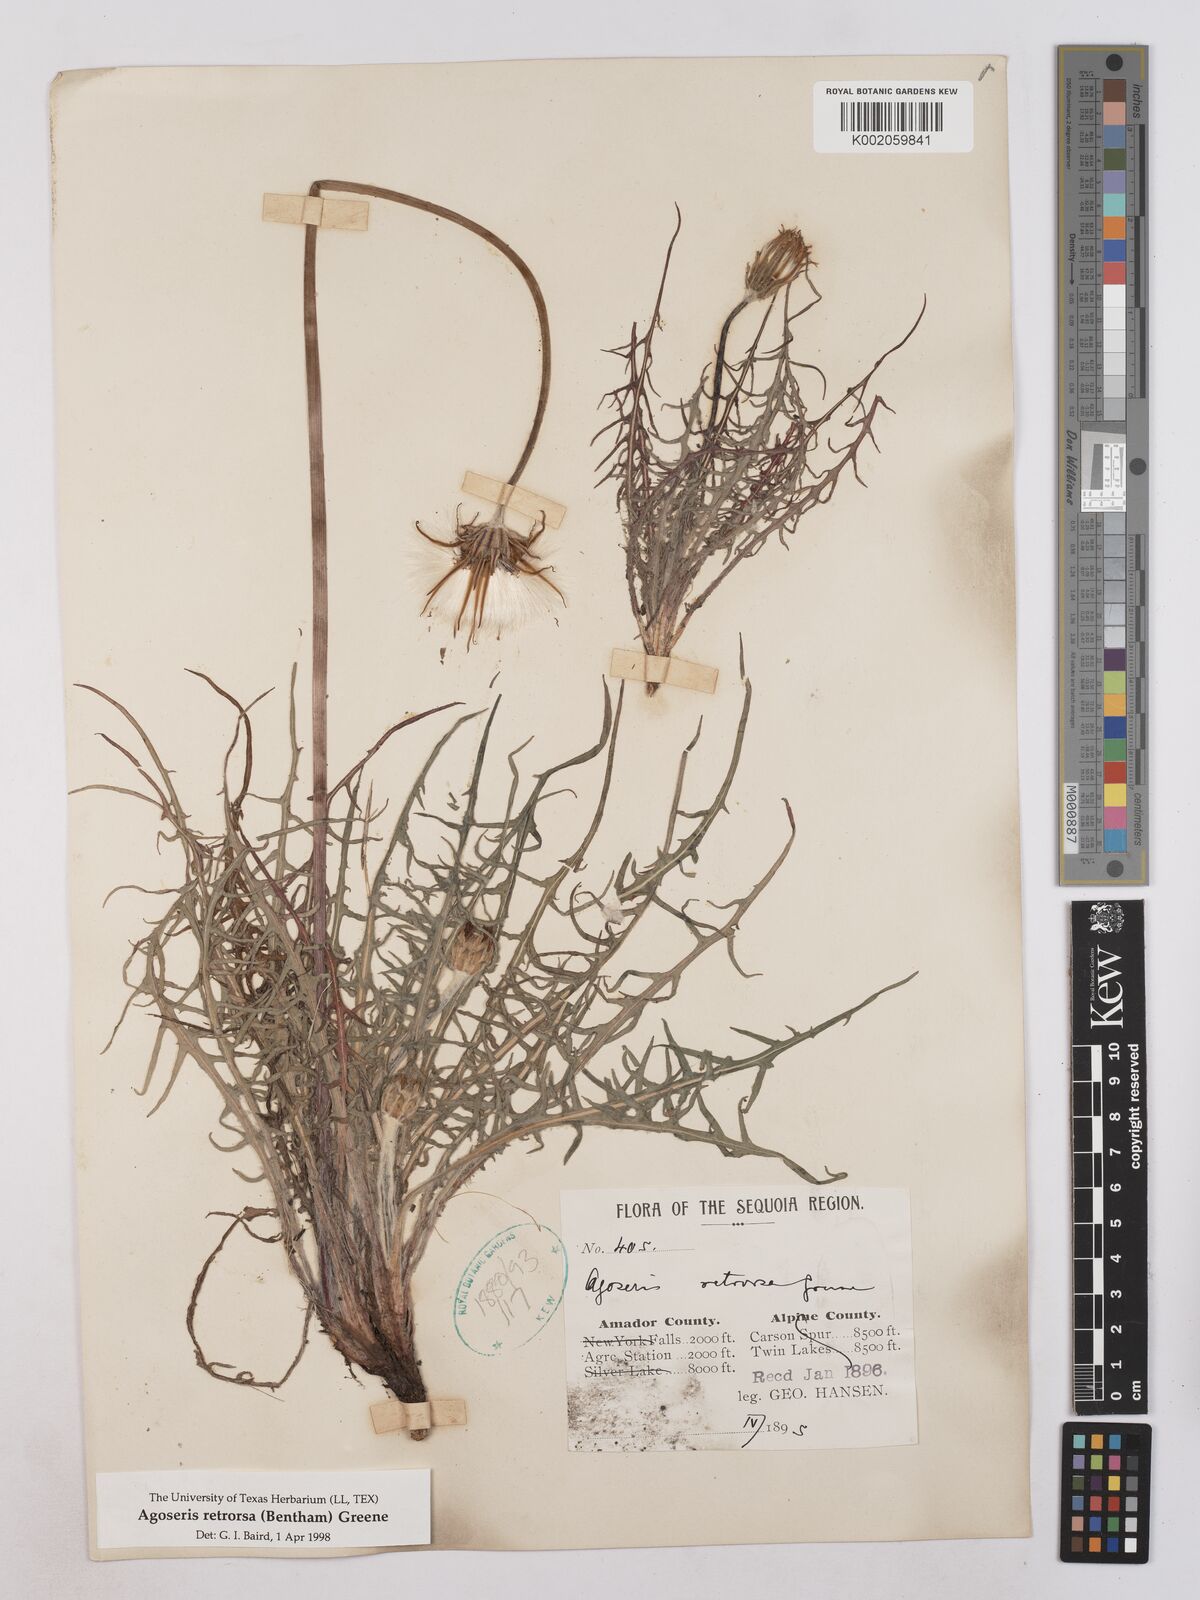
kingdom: Plantae
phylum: Tracheophyta
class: Magnoliopsida
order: Asterales
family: Asteraceae
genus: Agoseris
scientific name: Agoseris retrorsa
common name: Spearleaf agoseris
